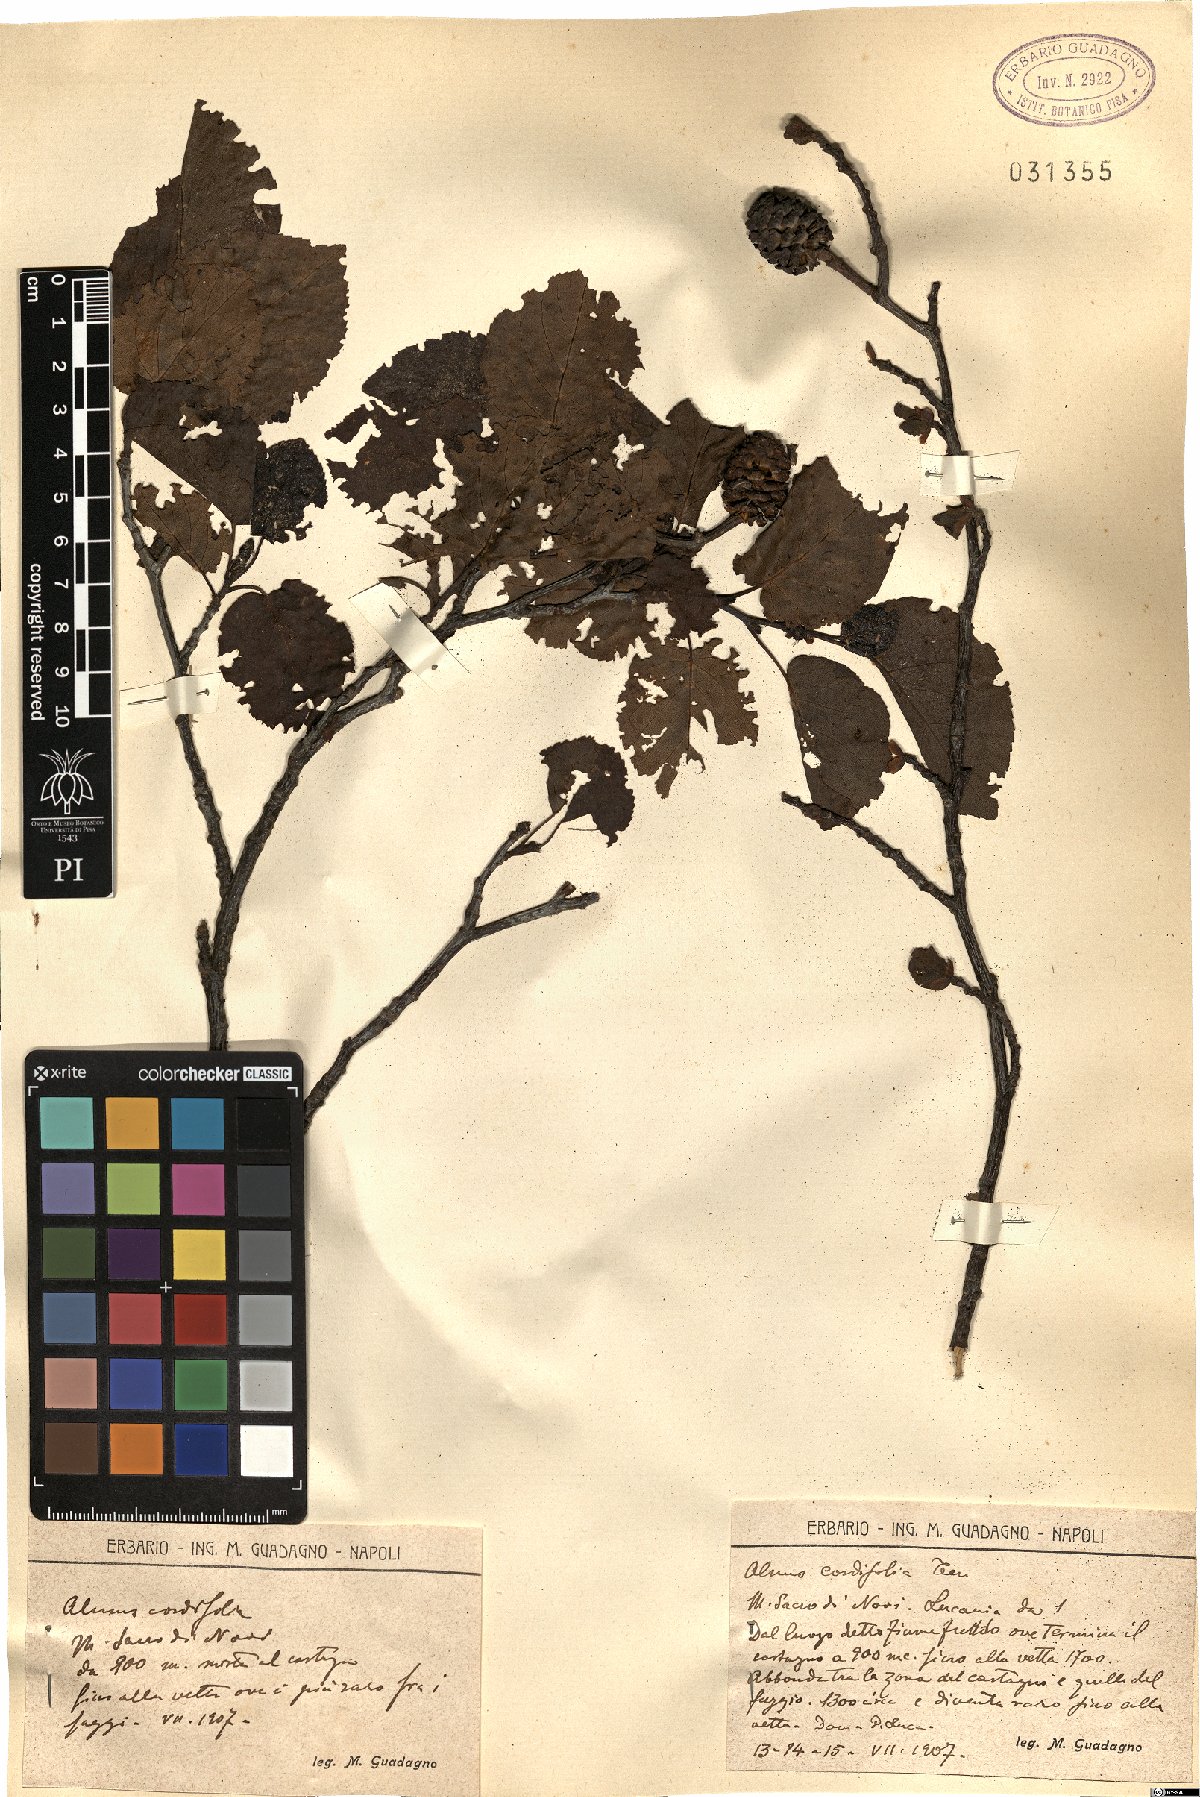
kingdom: Plantae
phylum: Tracheophyta
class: Magnoliopsida
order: Fagales
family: Betulaceae
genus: Alnus
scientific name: Alnus cordata
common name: Italian alder
